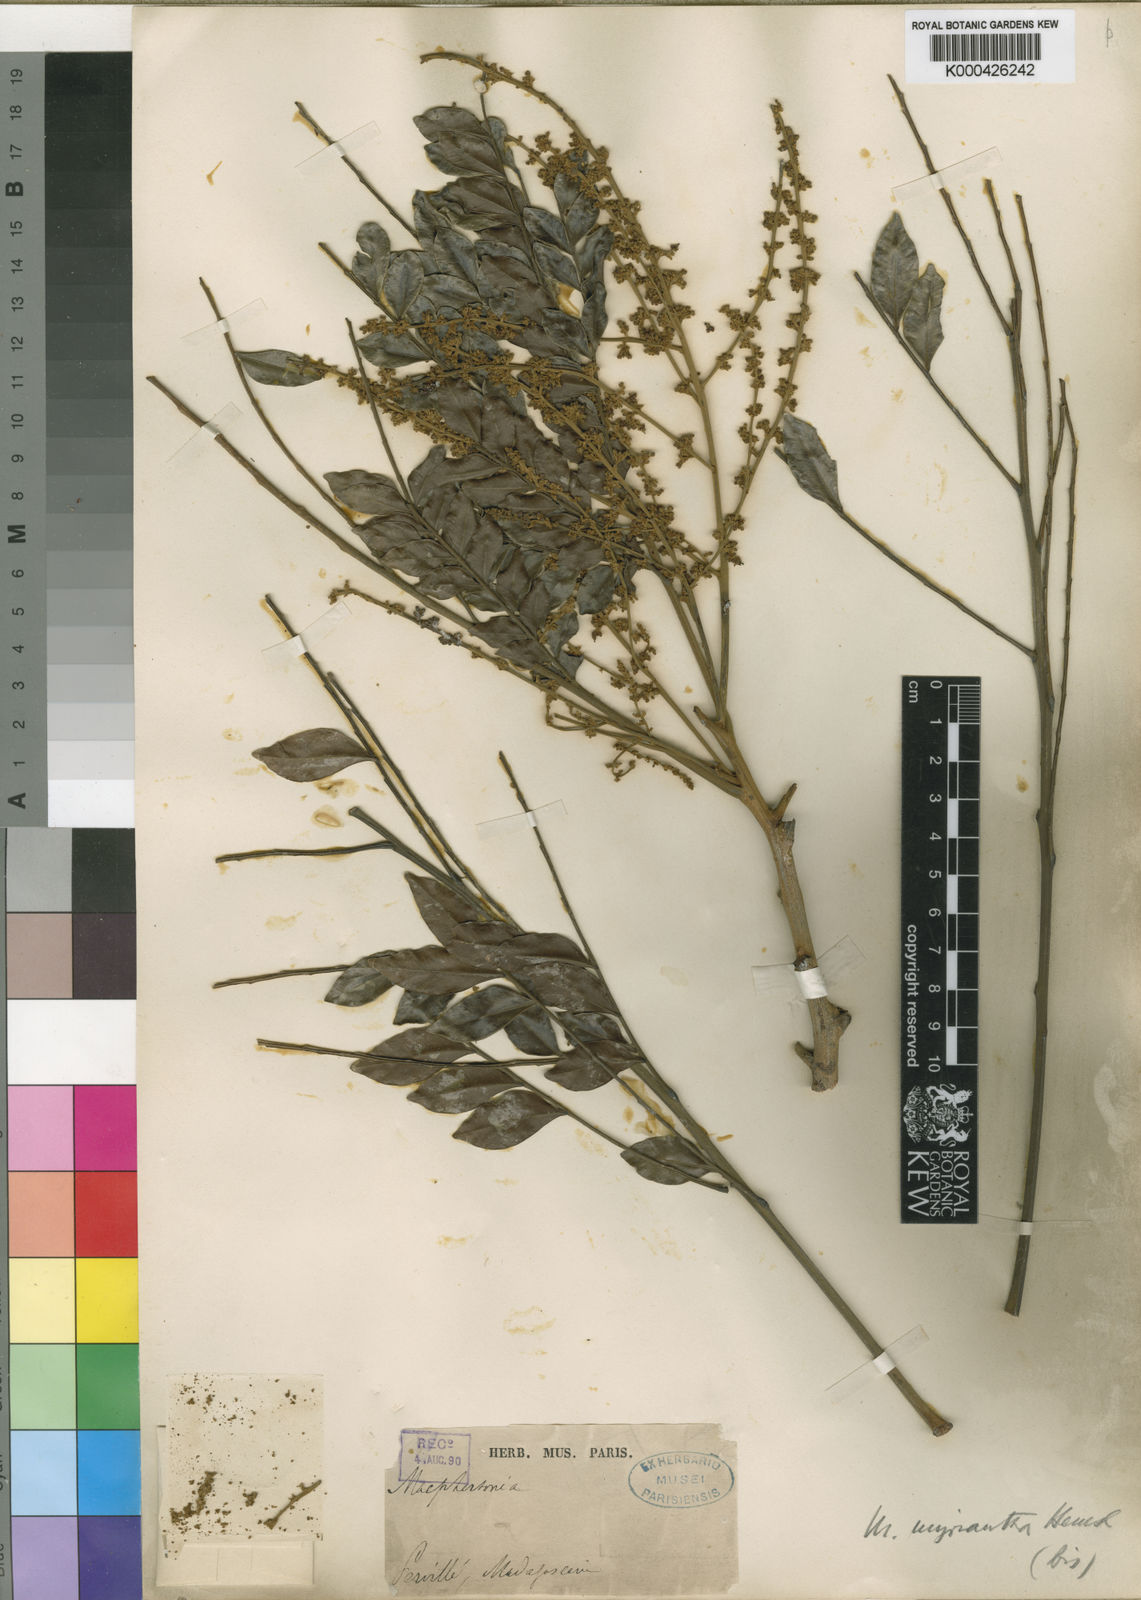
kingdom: Plantae
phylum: Tracheophyta
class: Magnoliopsida
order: Sapindales
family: Sapindaceae
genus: Macphersonia
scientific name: Macphersonia madagascariensis
